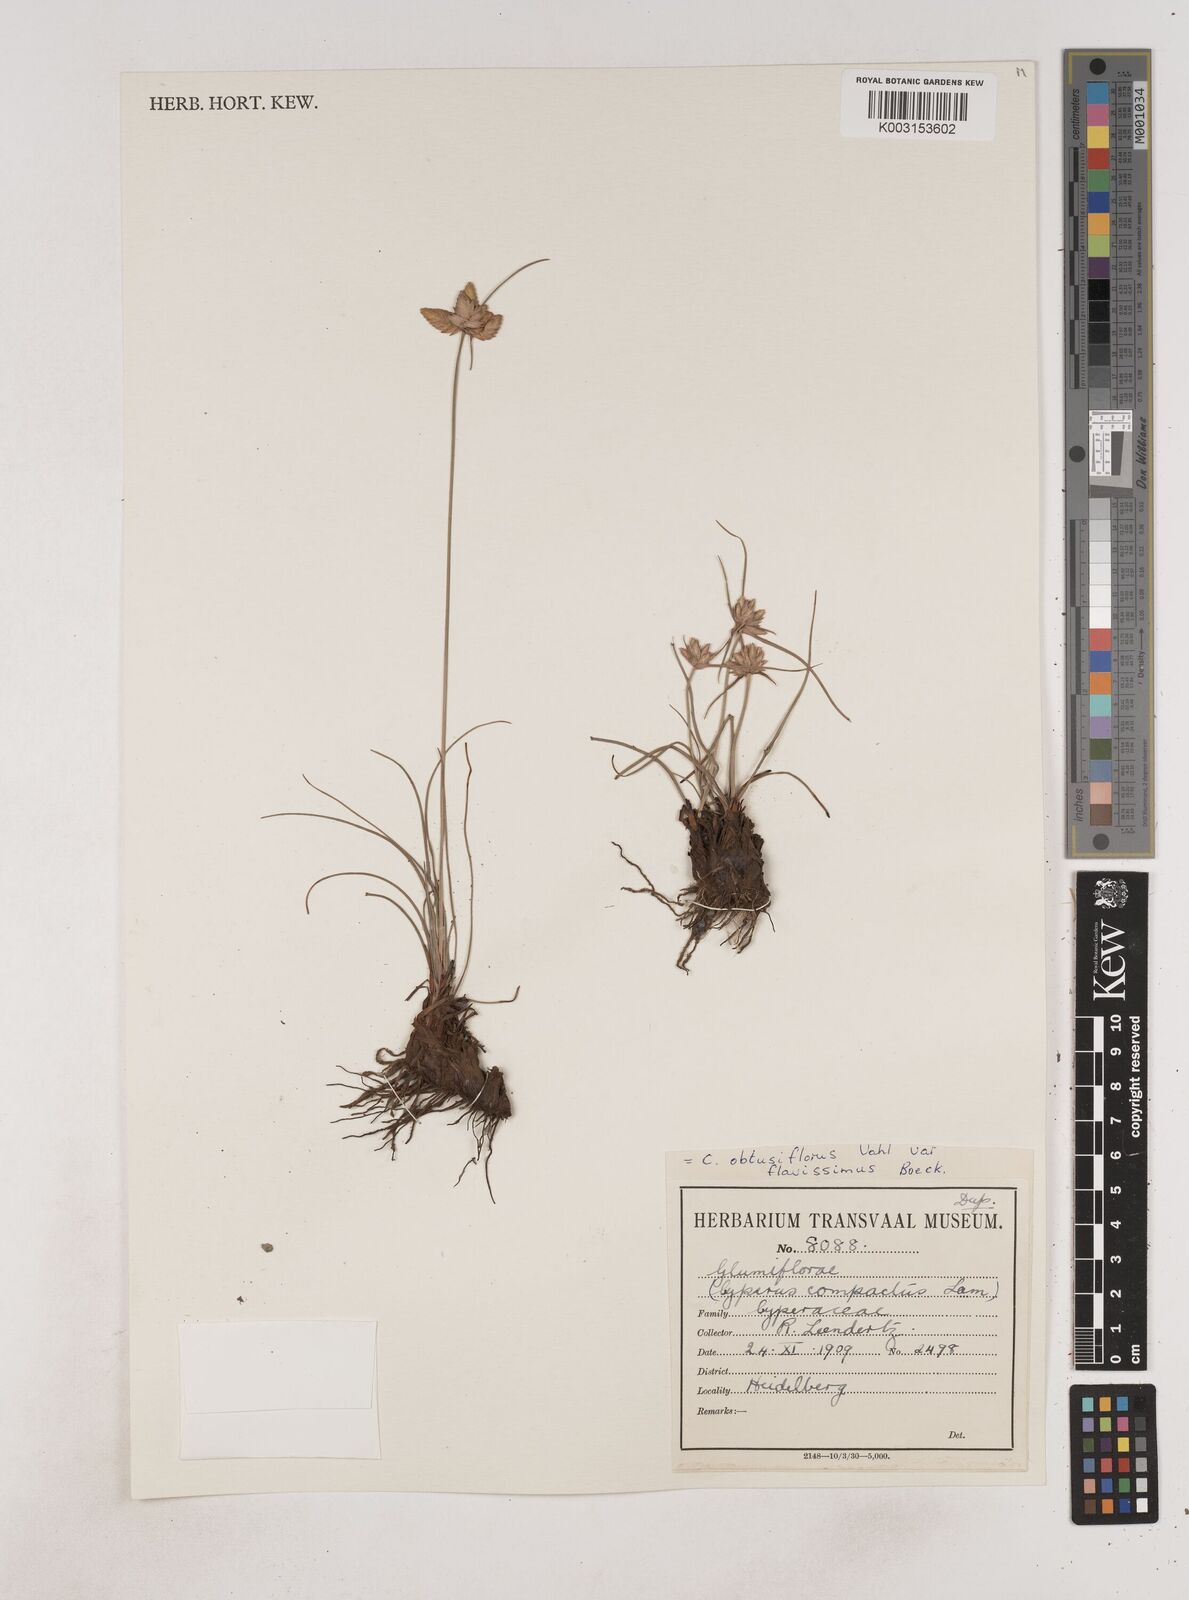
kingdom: Plantae
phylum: Tracheophyta
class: Liliopsida
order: Poales
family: Cyperaceae
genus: Cyperus
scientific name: Cyperus niveus
